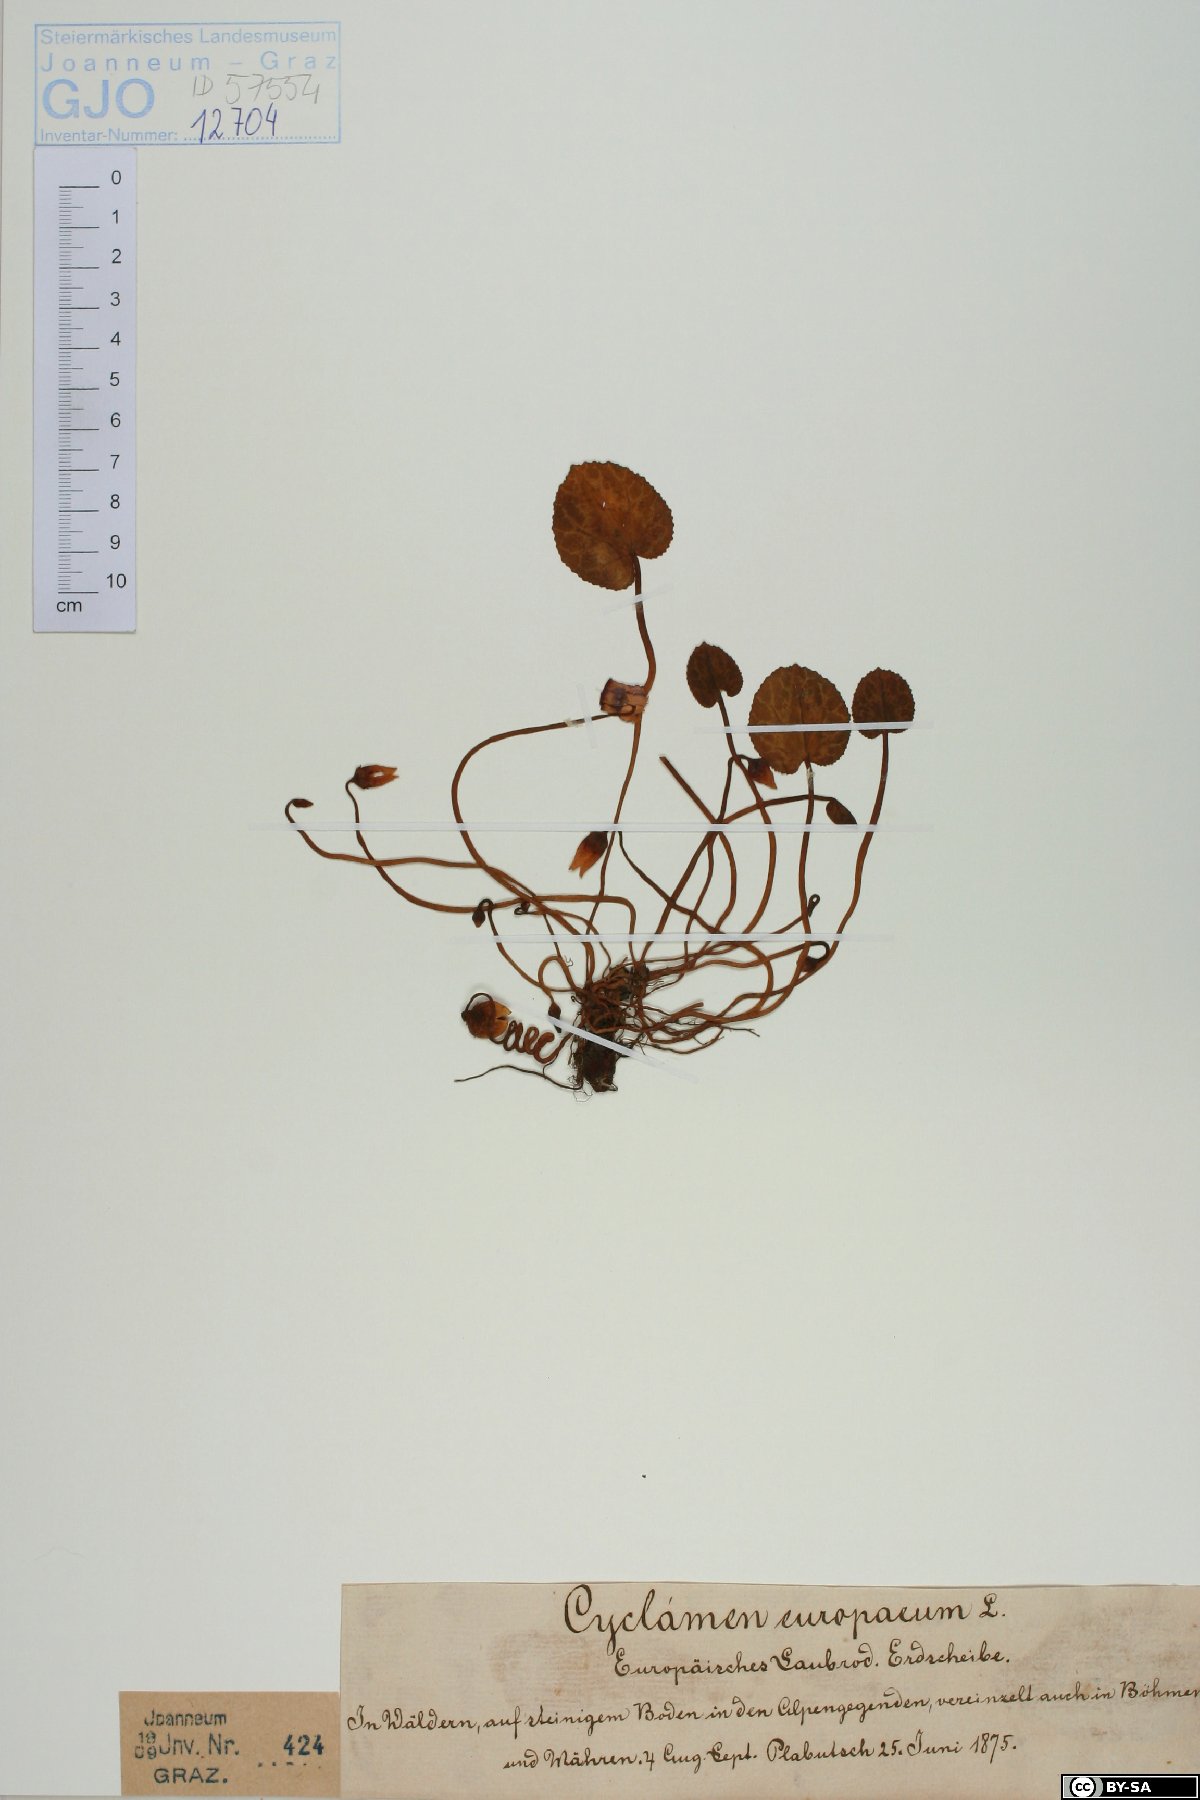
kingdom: Plantae
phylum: Tracheophyta
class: Magnoliopsida
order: Ericales
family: Primulaceae
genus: Cyclamen
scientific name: Cyclamen purpurascens
